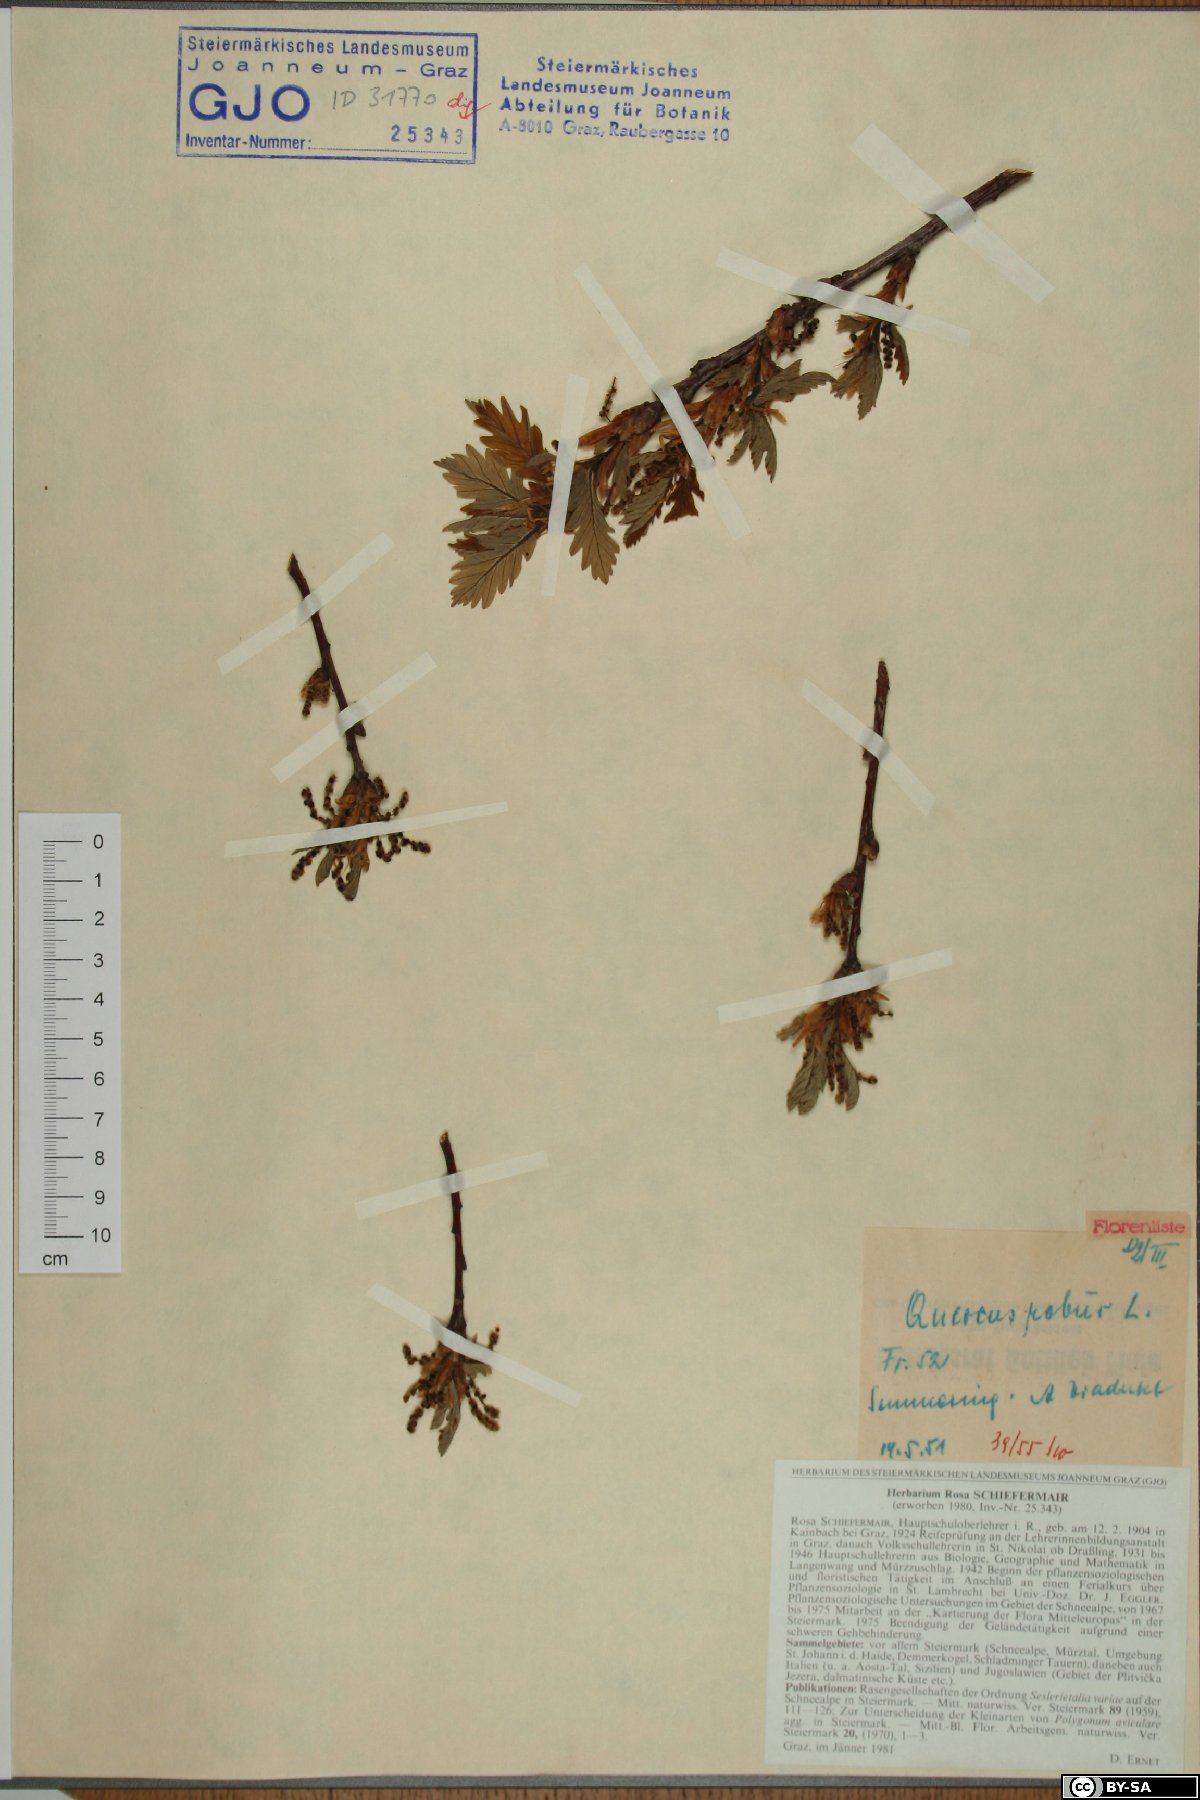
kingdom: Plantae
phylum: Tracheophyta
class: Magnoliopsida
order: Fagales
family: Fagaceae
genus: Quercus
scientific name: Quercus robur
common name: Pedunculate oak
